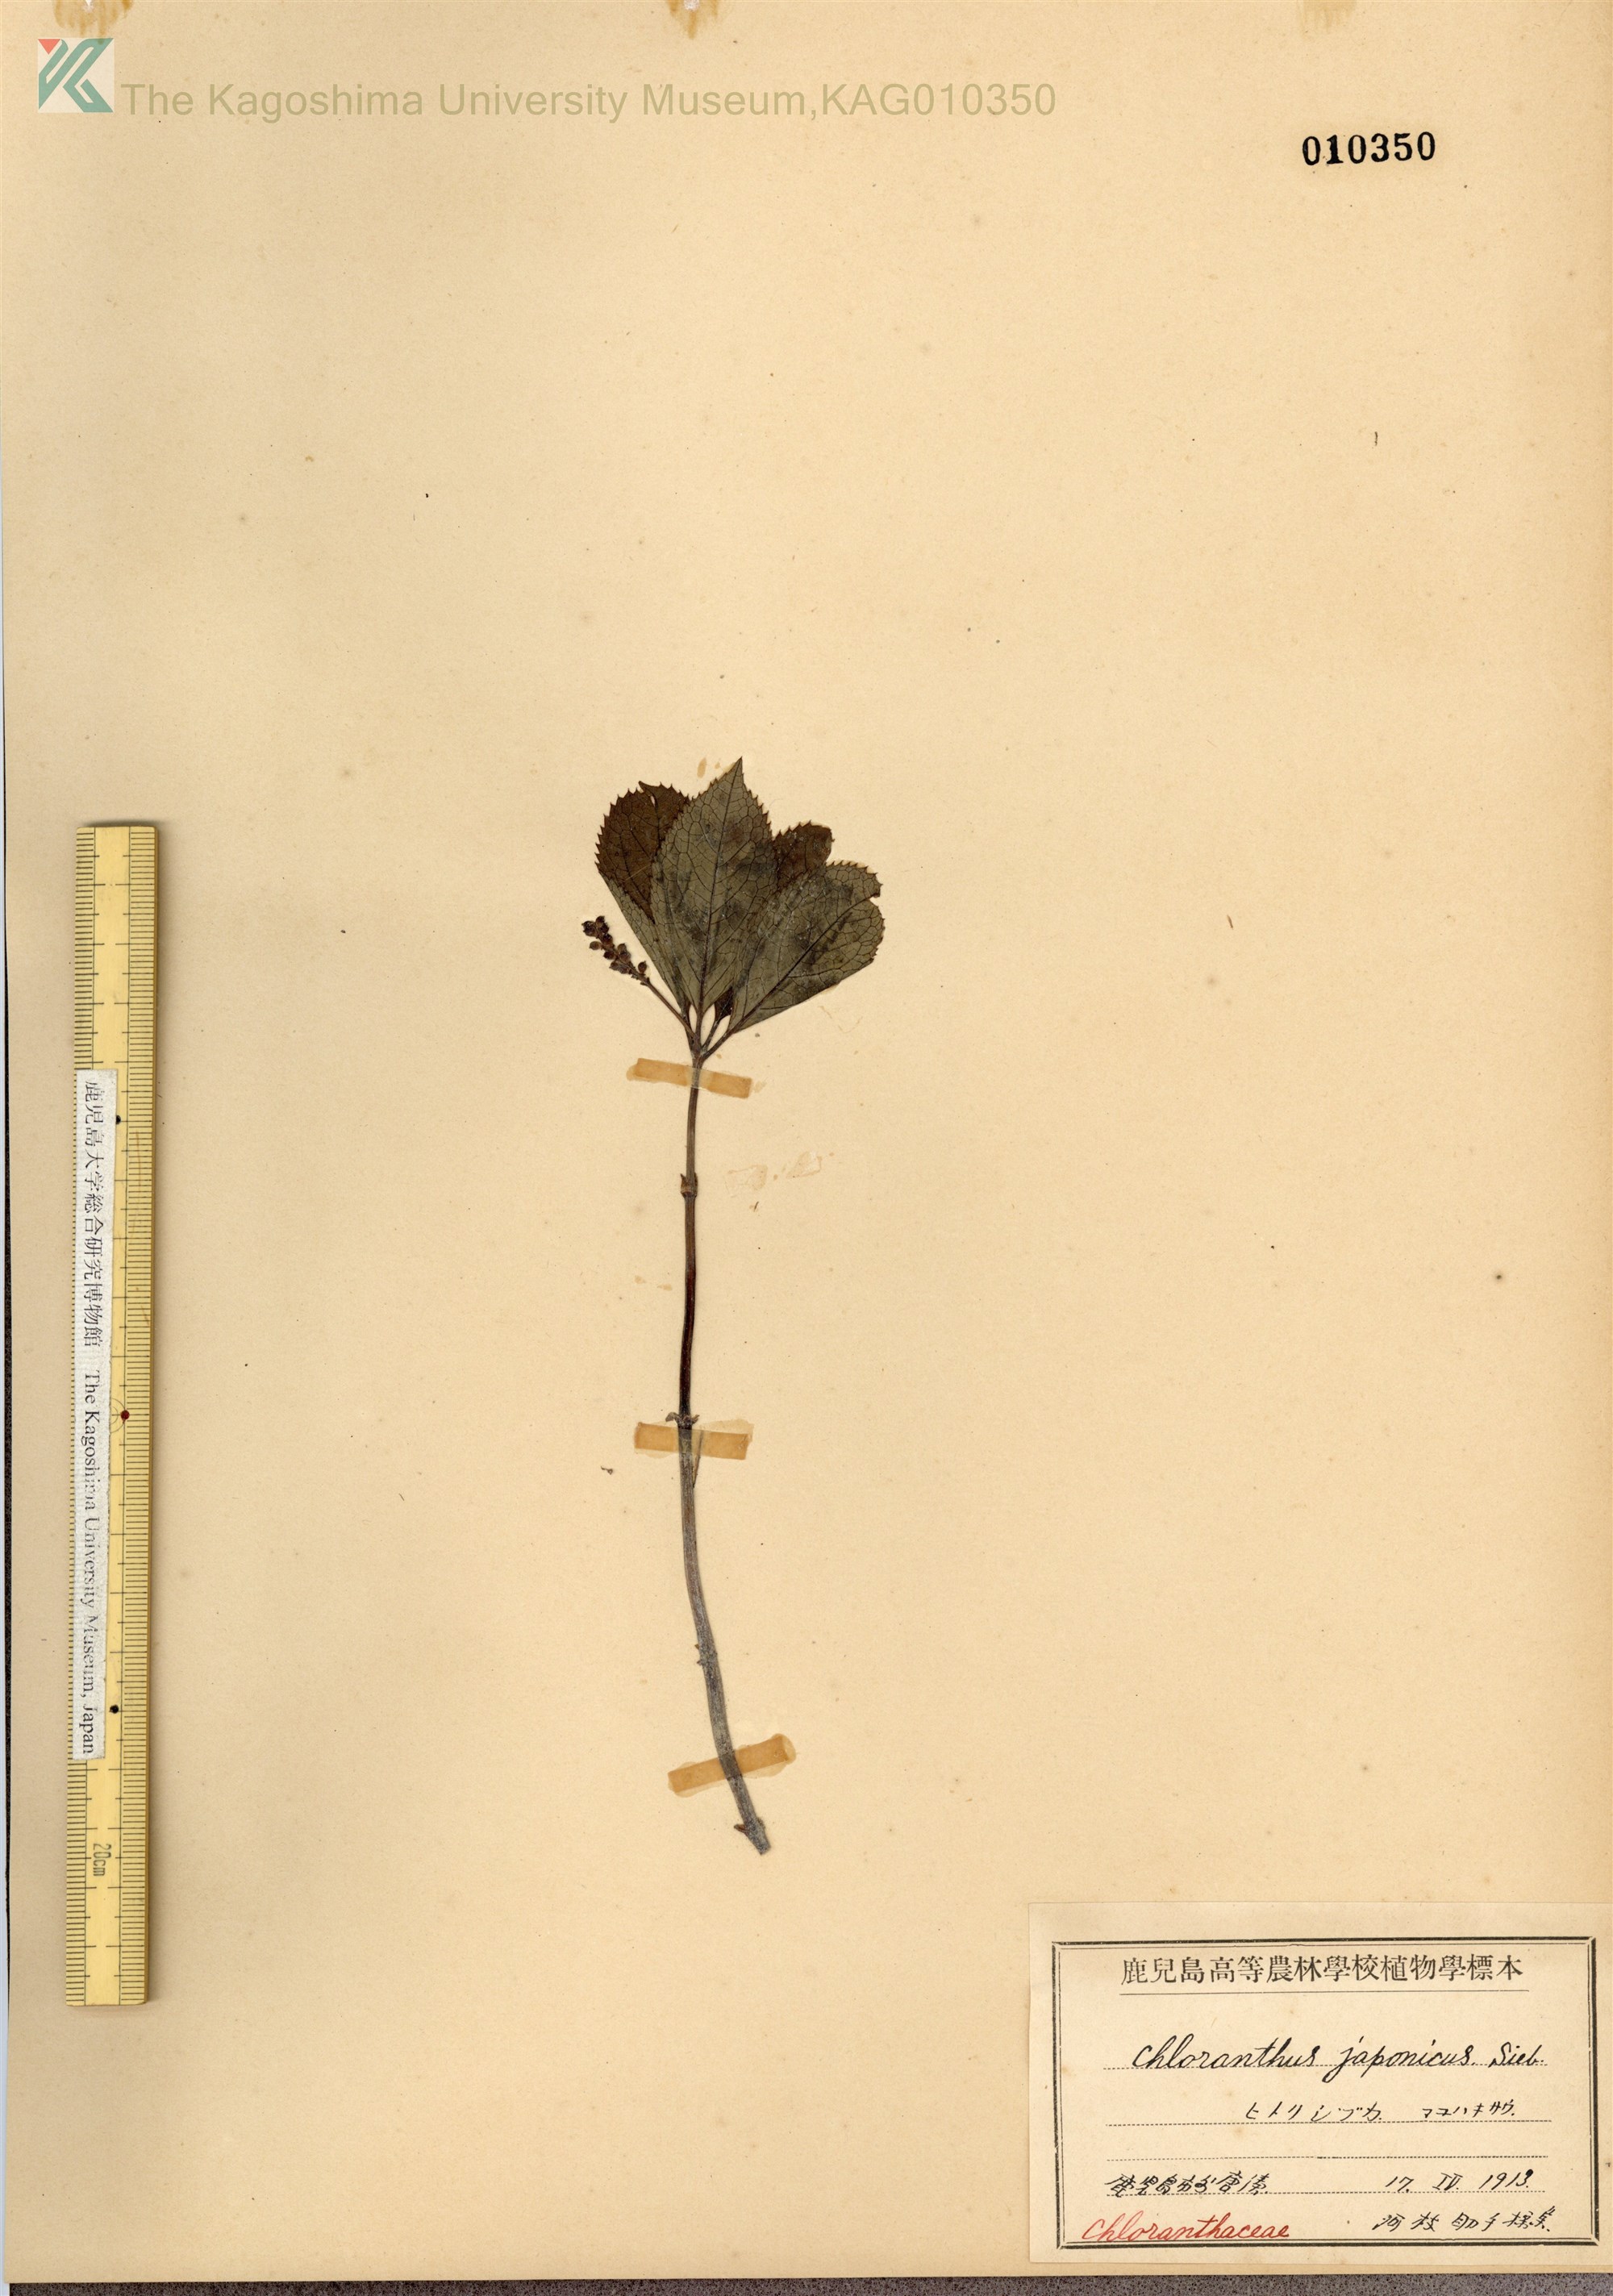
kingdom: Plantae
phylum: Tracheophyta
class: Magnoliopsida
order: Chloranthales
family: Chloranthaceae
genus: Chloranthus
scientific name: Chloranthus japonicus
